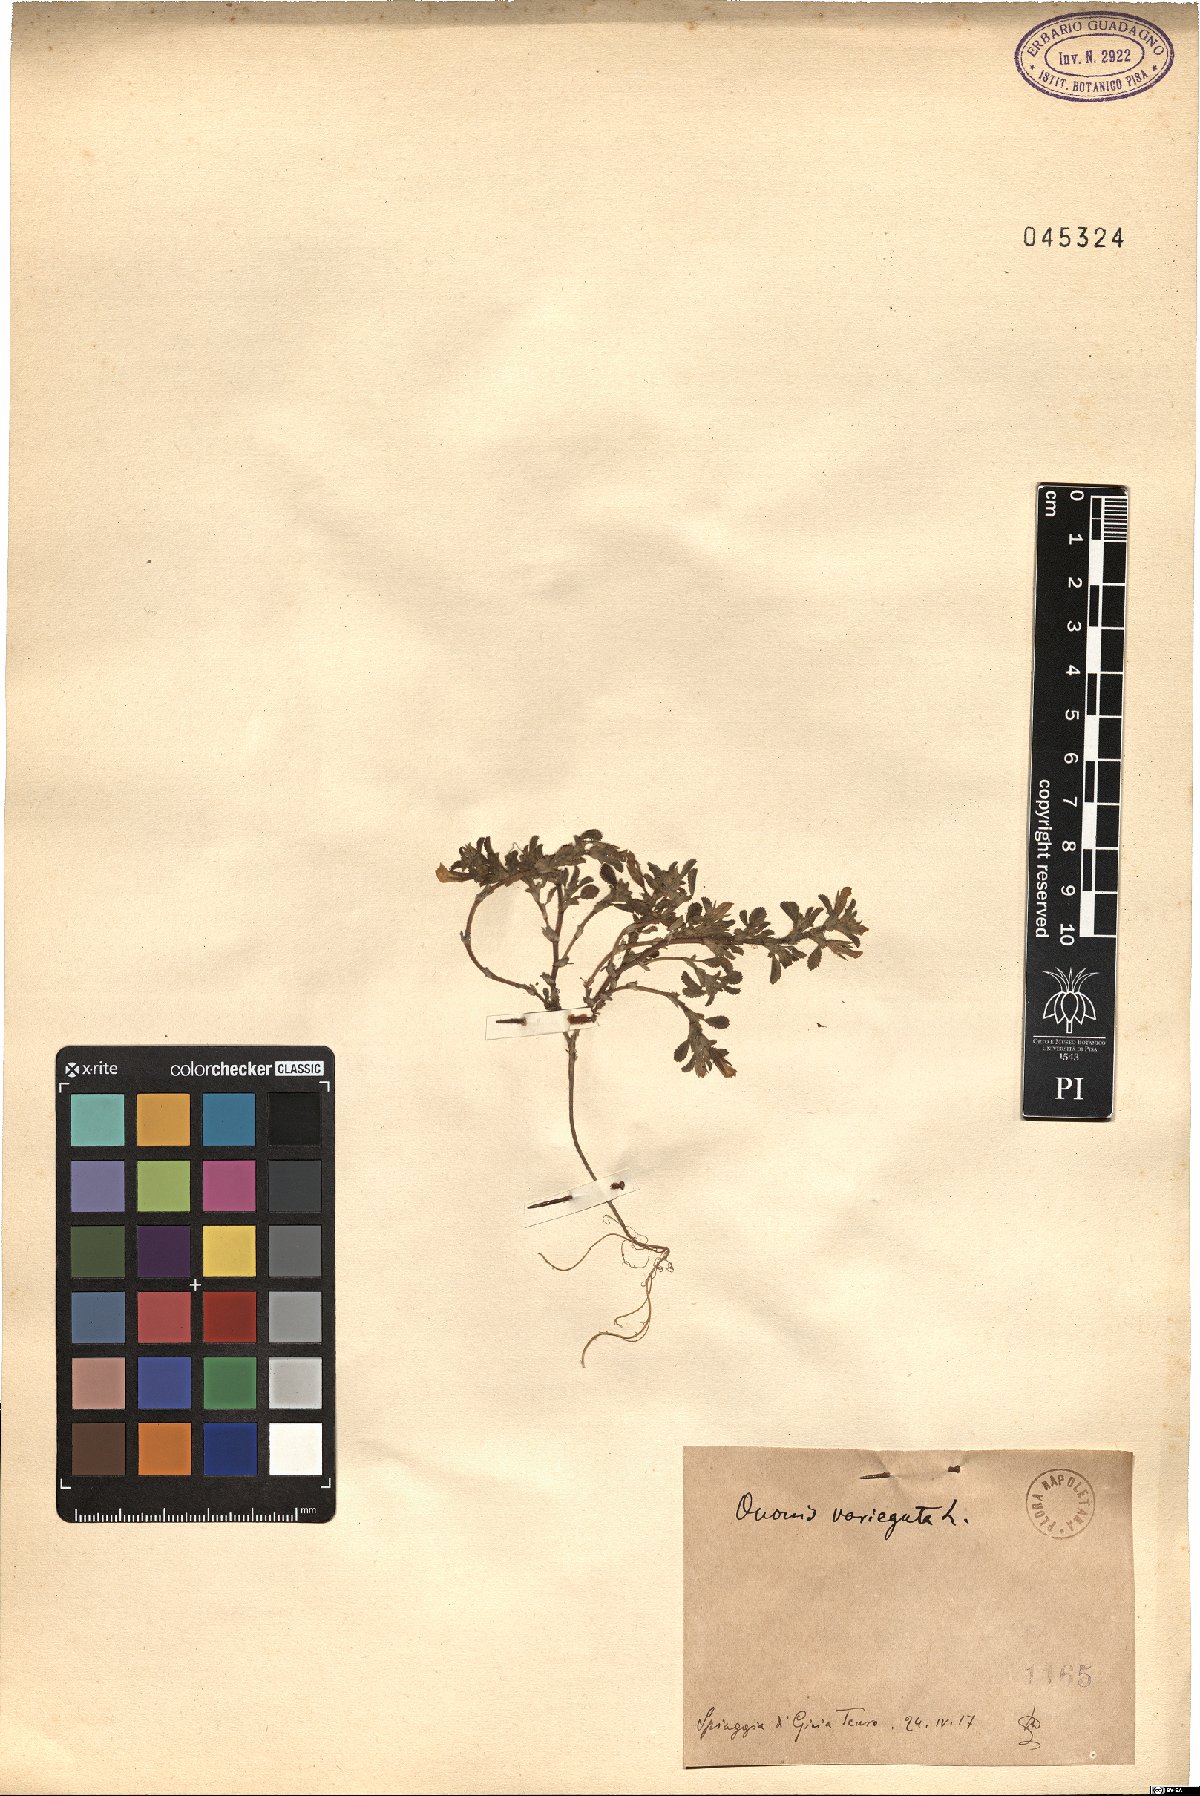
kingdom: Plantae
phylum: Tracheophyta
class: Magnoliopsida
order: Fabales
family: Fabaceae
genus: Ononis
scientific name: Ononis variegata
